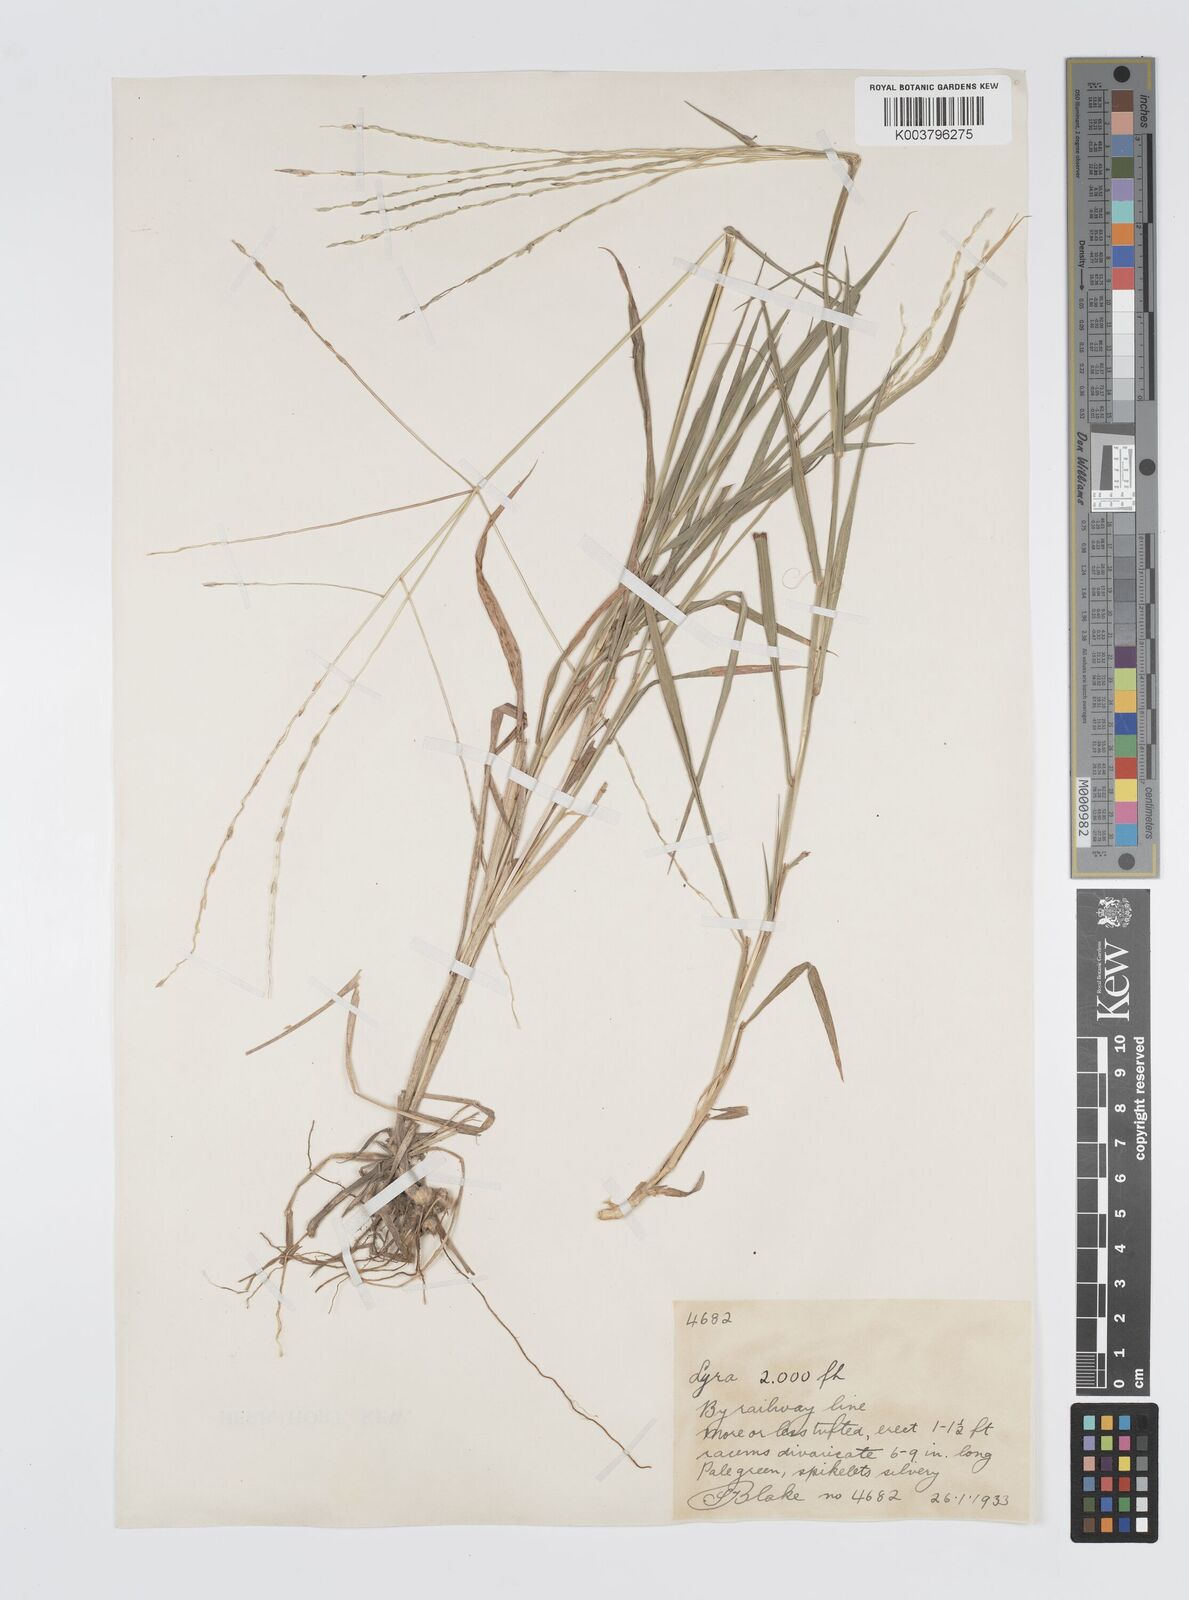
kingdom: Plantae
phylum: Tracheophyta
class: Liliopsida
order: Poales
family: Poaceae
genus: Digitaria
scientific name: Digitaria divaricatissima
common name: Crabgrass
